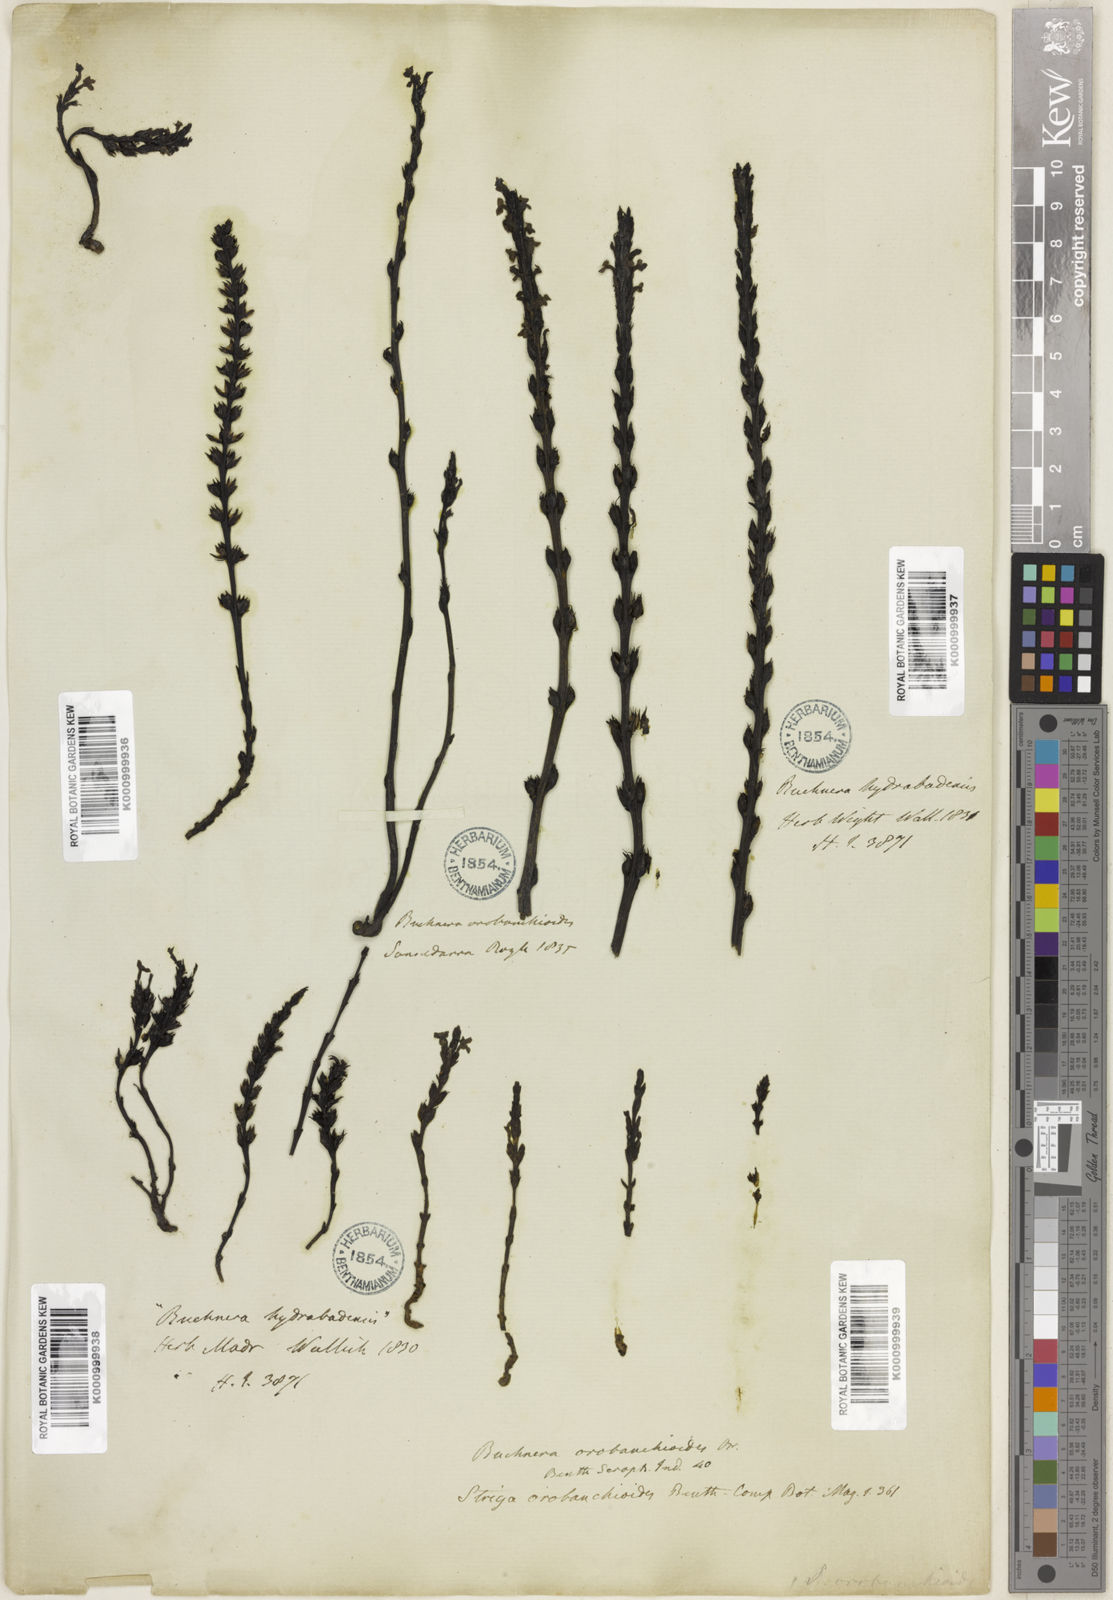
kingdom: Plantae
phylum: Tracheophyta
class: Magnoliopsida
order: Lamiales
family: Orobanchaceae
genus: Striga
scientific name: Striga barthlottii
